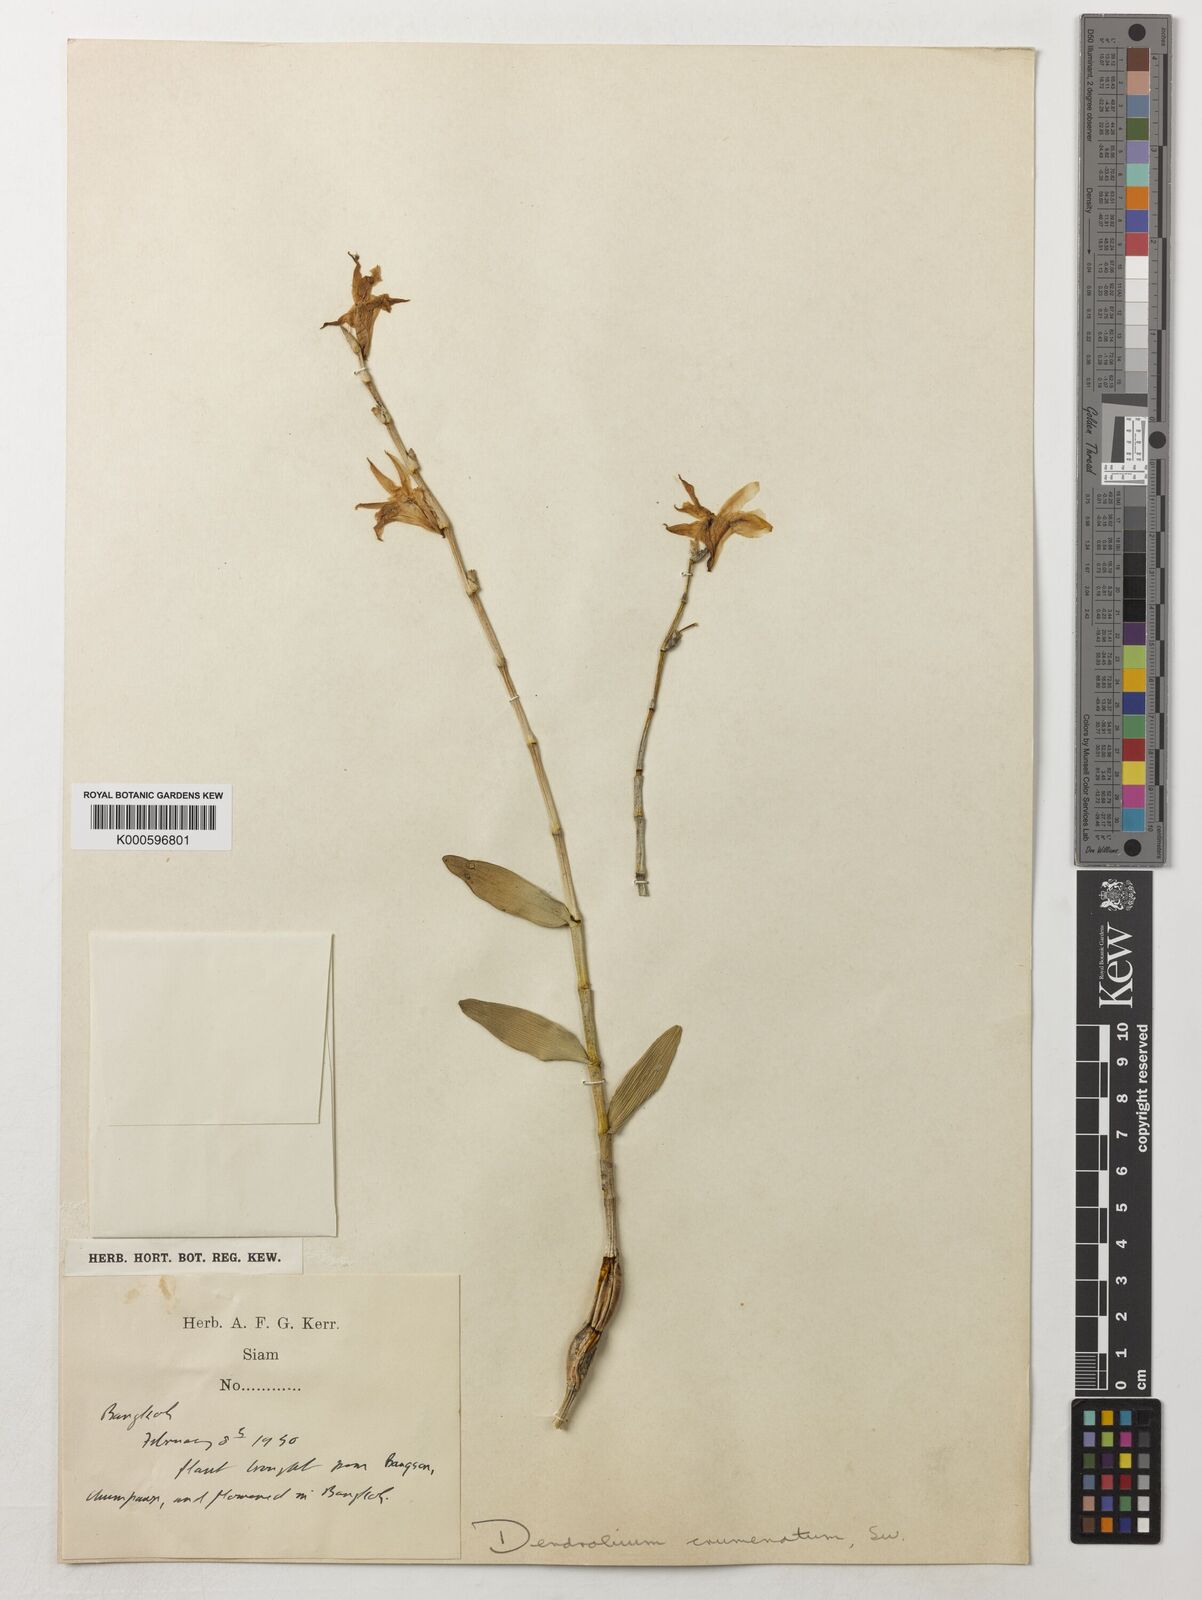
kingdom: Plantae
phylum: Tracheophyta
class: Liliopsida
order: Asparagales
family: Orchidaceae
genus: Dendrobium
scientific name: Dendrobium crumenatum
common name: Orchid
